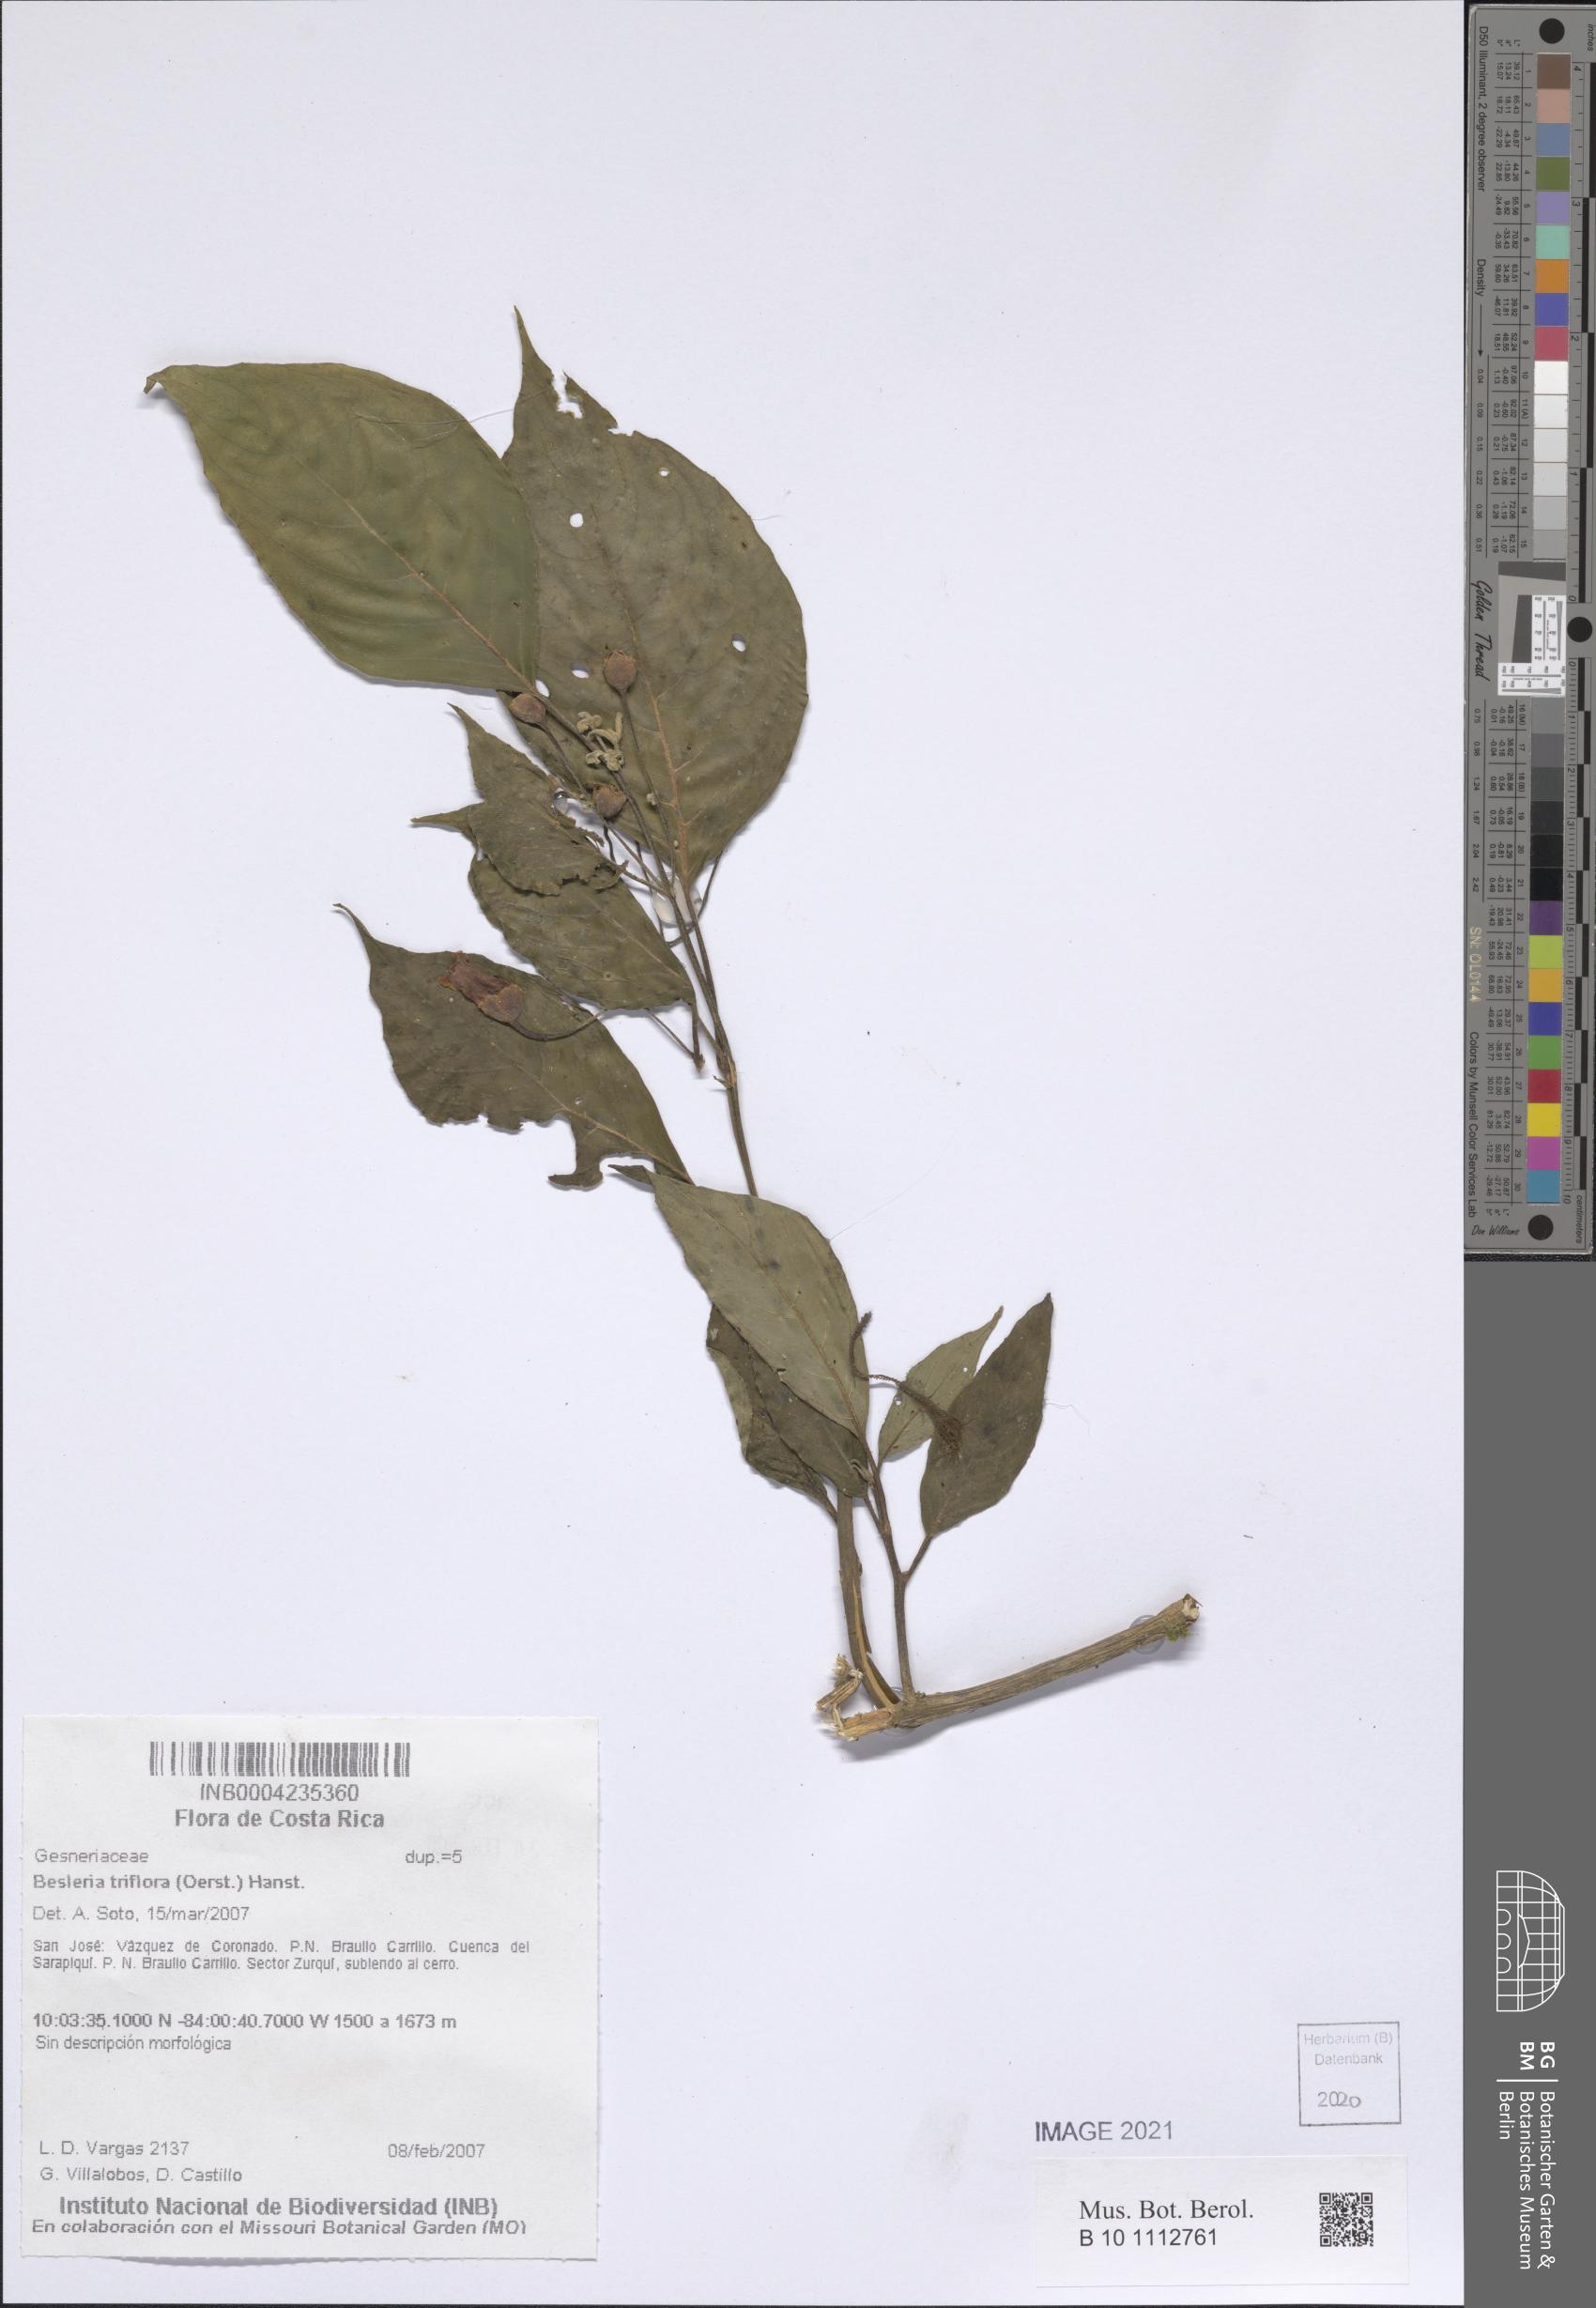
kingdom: Plantae
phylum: Tracheophyta
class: Magnoliopsida
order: Lamiales
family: Gesneriaceae
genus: Besleria
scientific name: Besleria triflora
